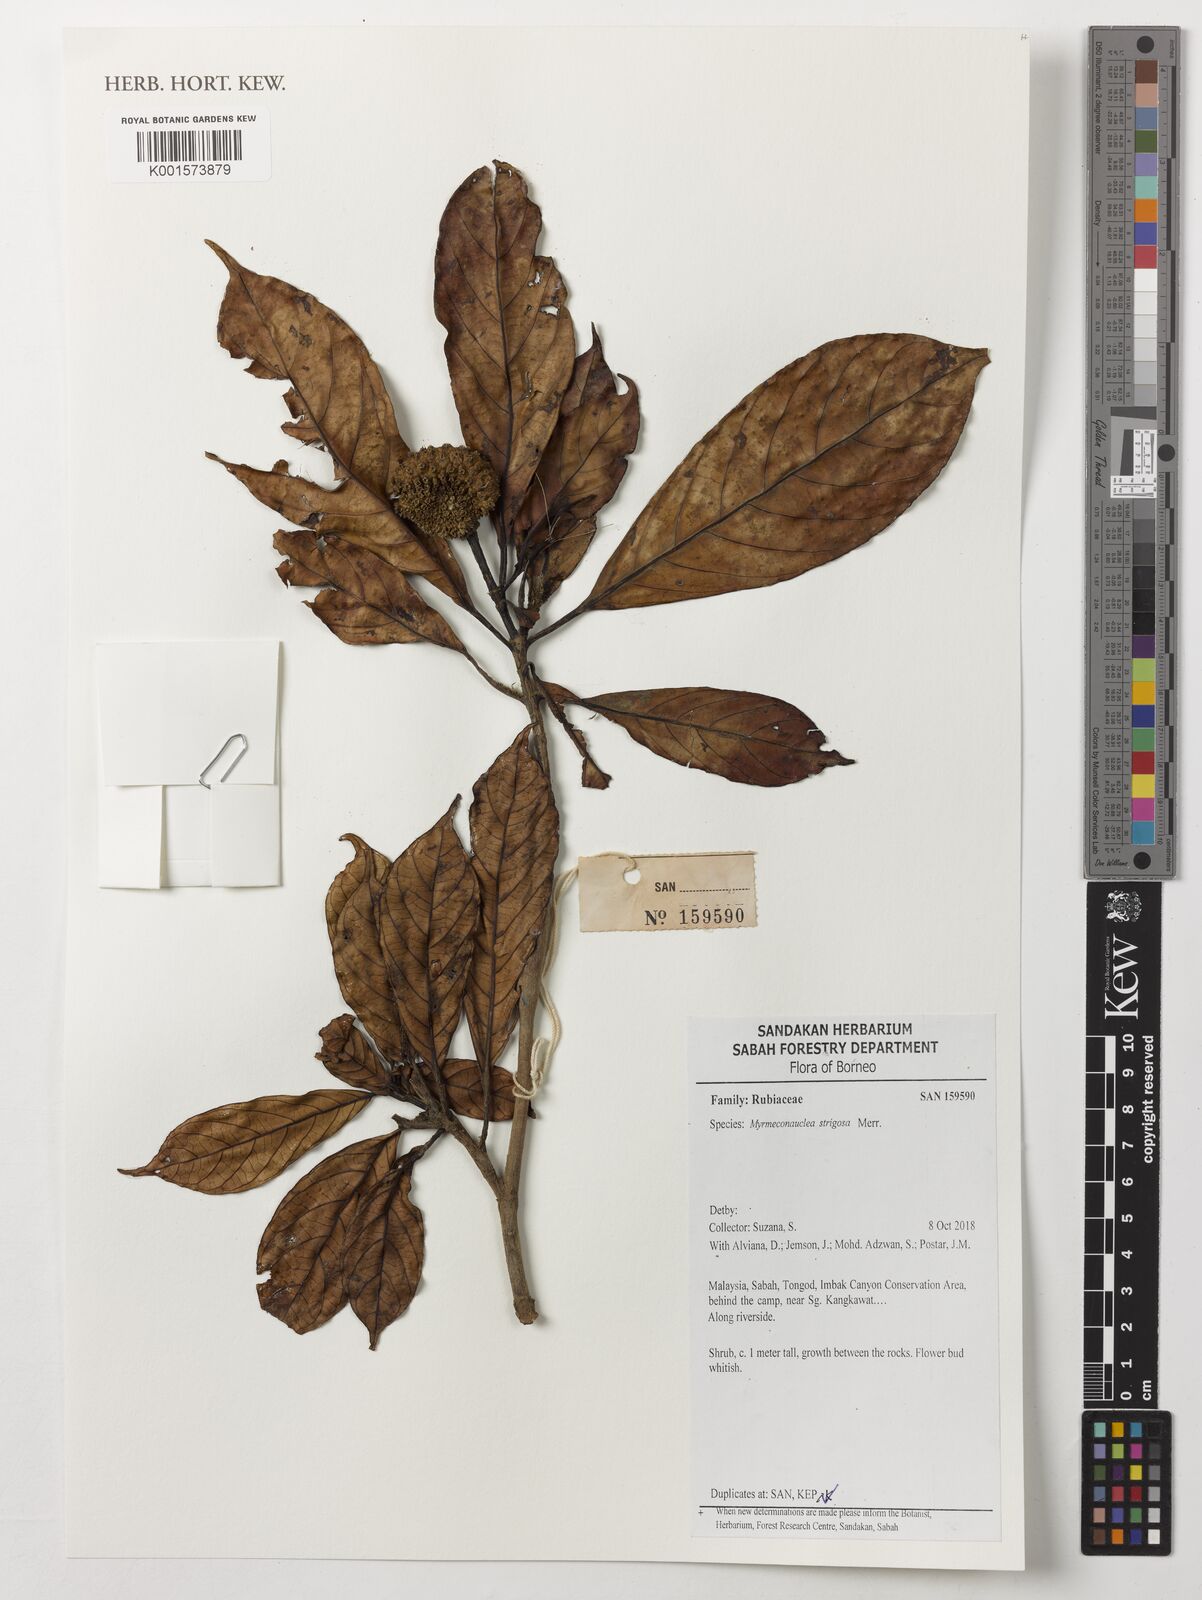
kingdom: Plantae
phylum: Tracheophyta
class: Magnoliopsida
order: Gentianales
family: Rubiaceae
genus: Myrmeconauclea
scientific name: Myrmeconauclea strigosa
